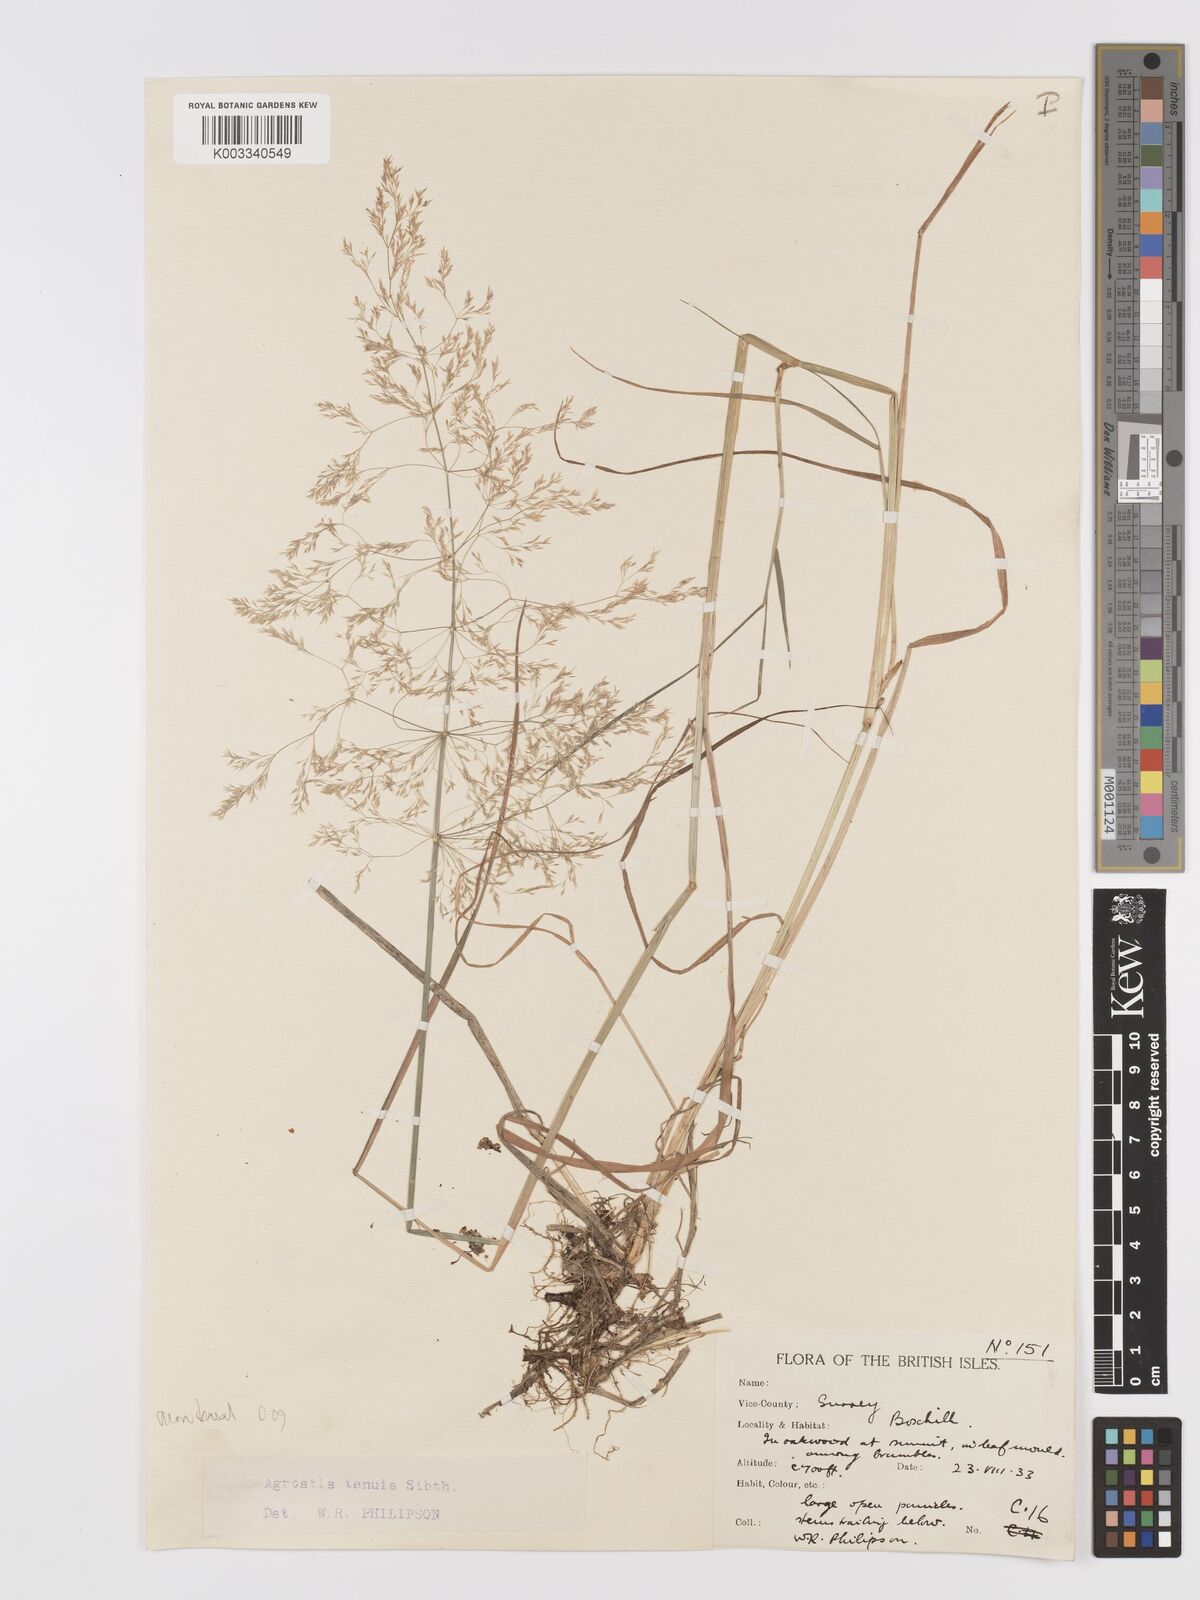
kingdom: Plantae
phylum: Tracheophyta
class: Liliopsida
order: Poales
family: Poaceae
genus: Agrostis
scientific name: Agrostis capillaris
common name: Colonial bentgrass
